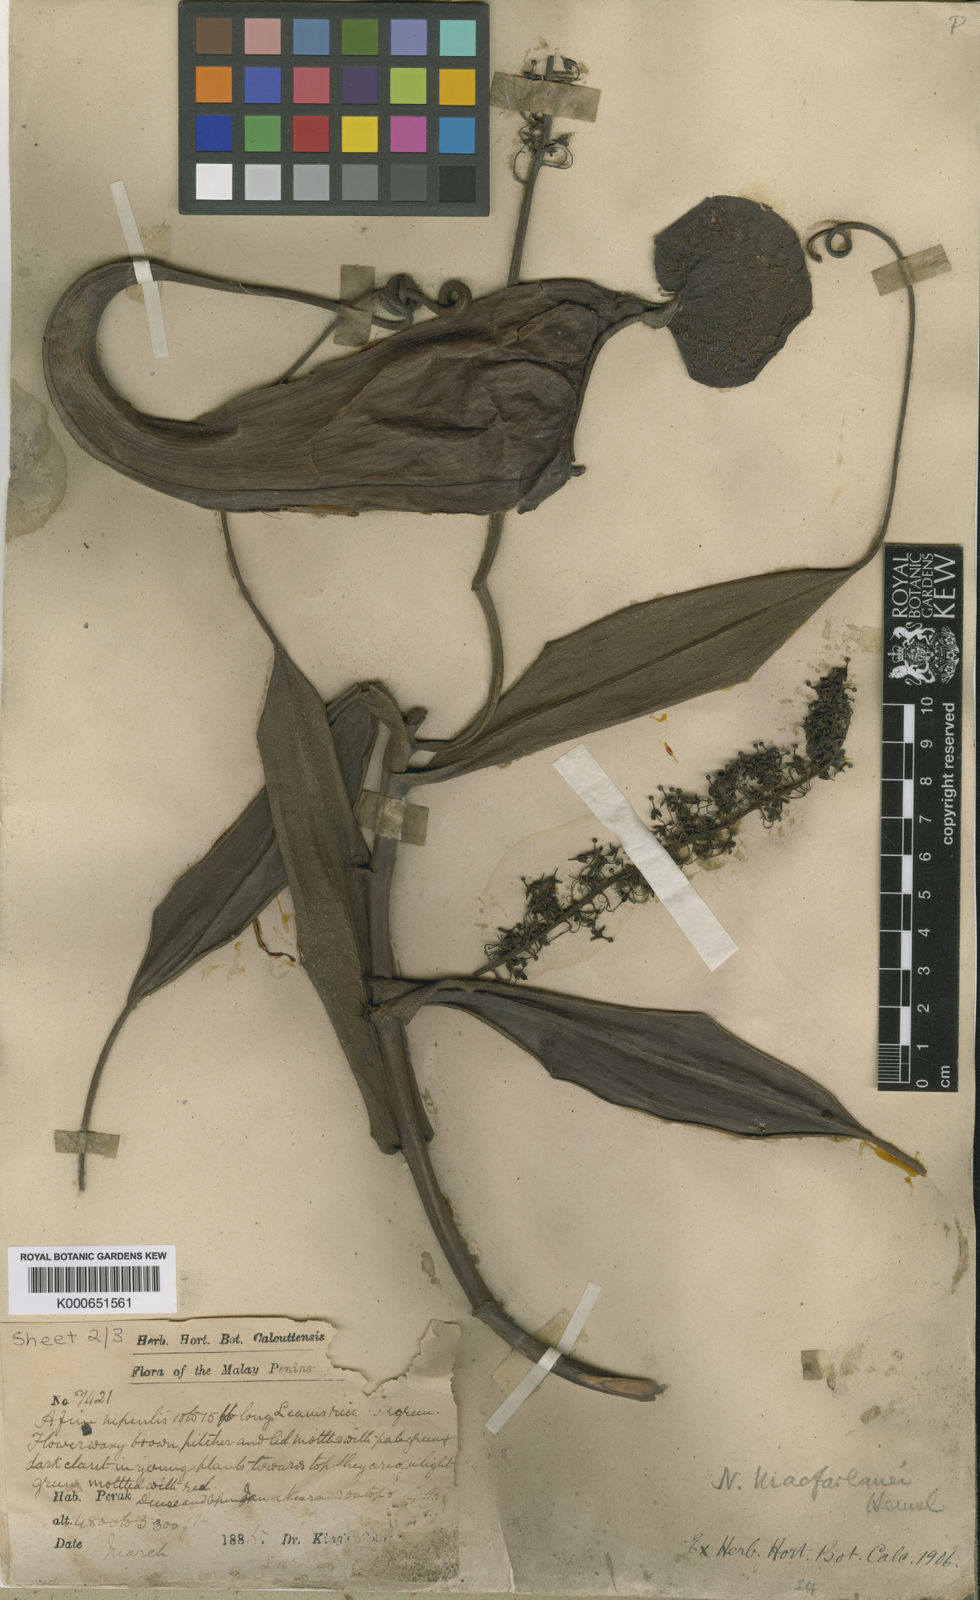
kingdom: Plantae
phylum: Tracheophyta
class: Magnoliopsida
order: Caryophyllales
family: Nepenthaceae
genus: Nepenthes
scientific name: Nepenthes macfarlanei
